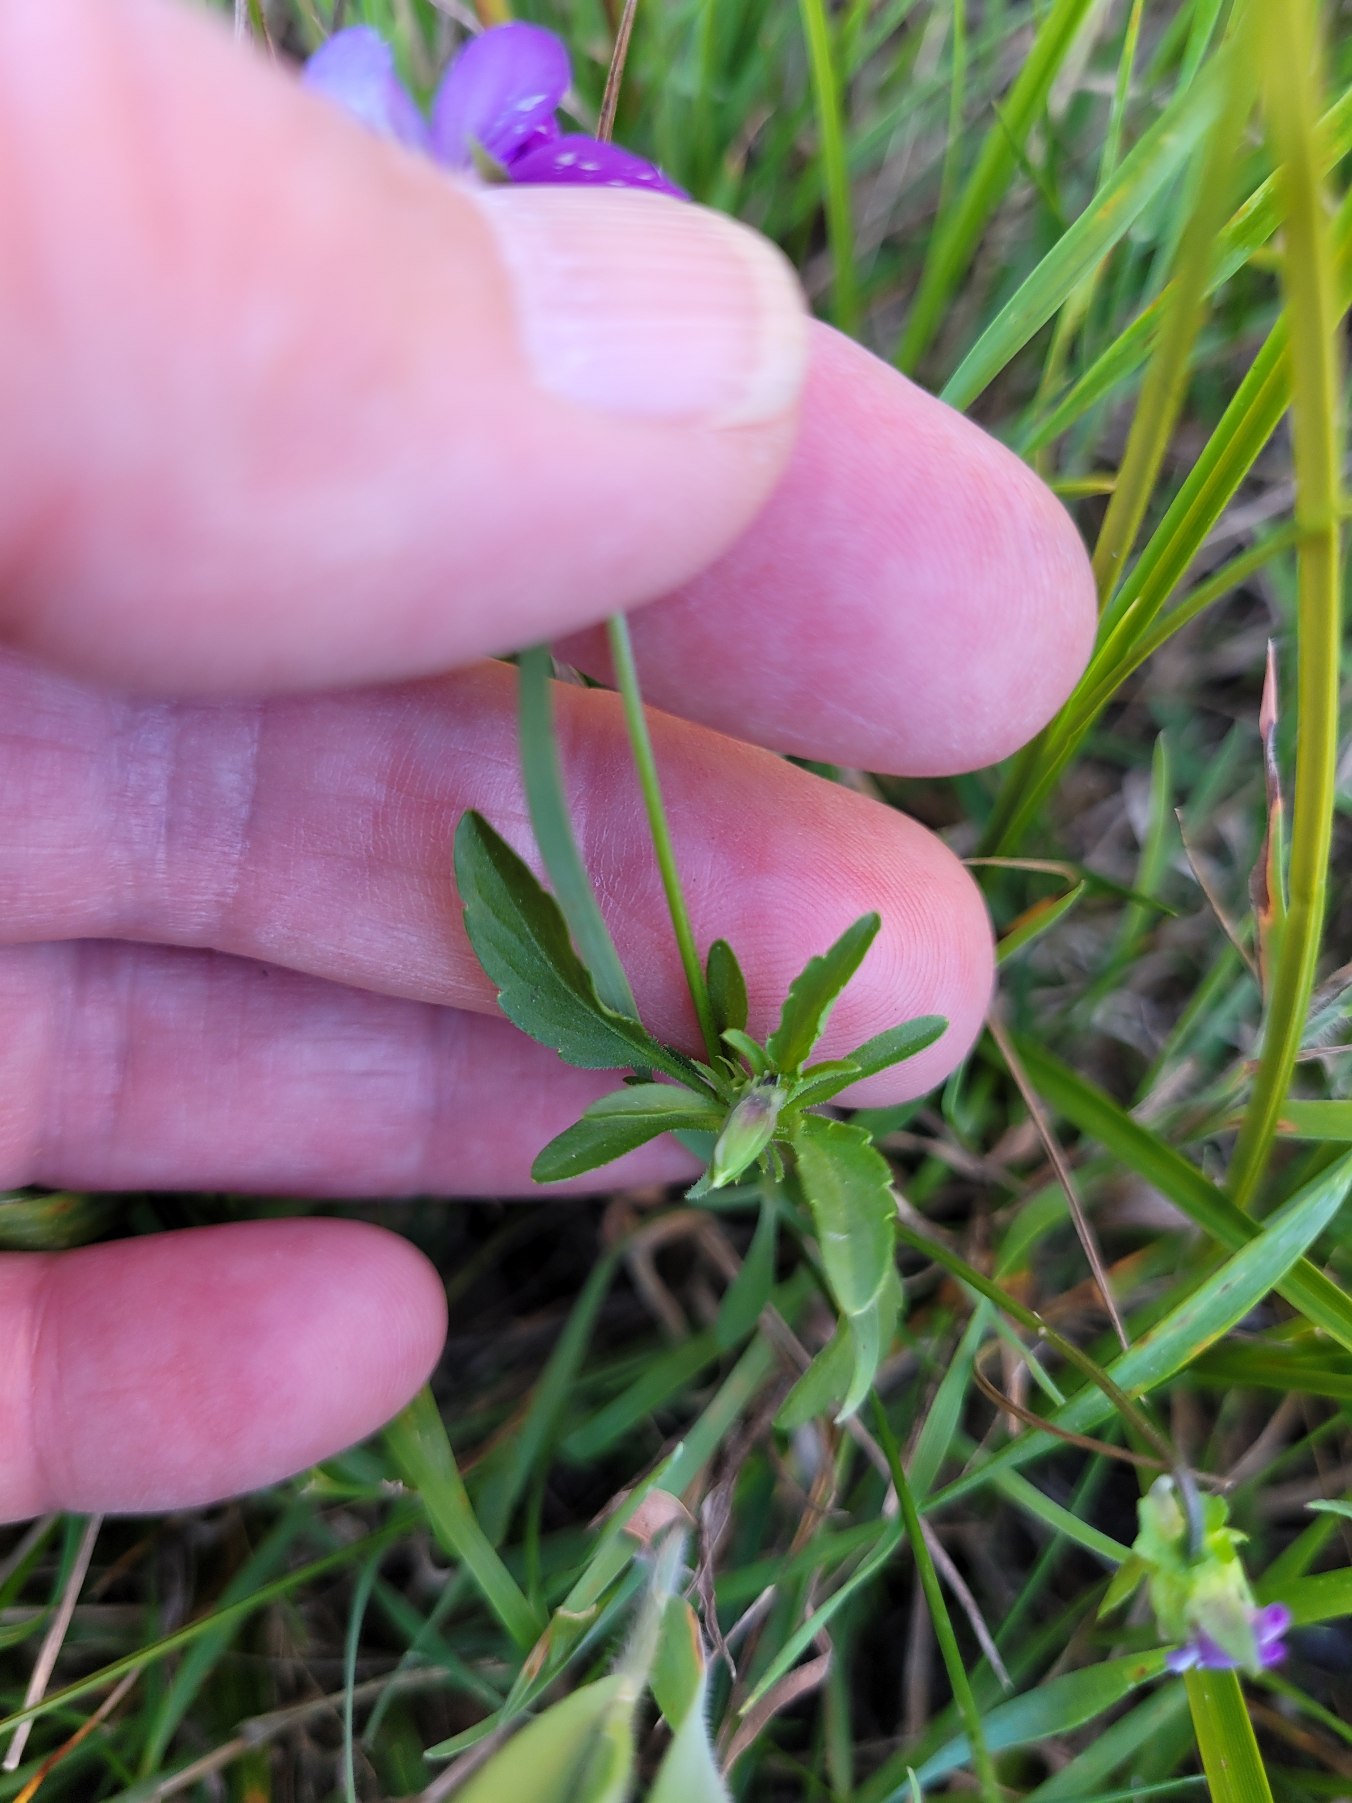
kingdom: Plantae
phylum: Tracheophyta
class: Magnoliopsida
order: Malpighiales
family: Violaceae
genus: Viola
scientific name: Viola tricolor
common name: Stedmoderblomst
